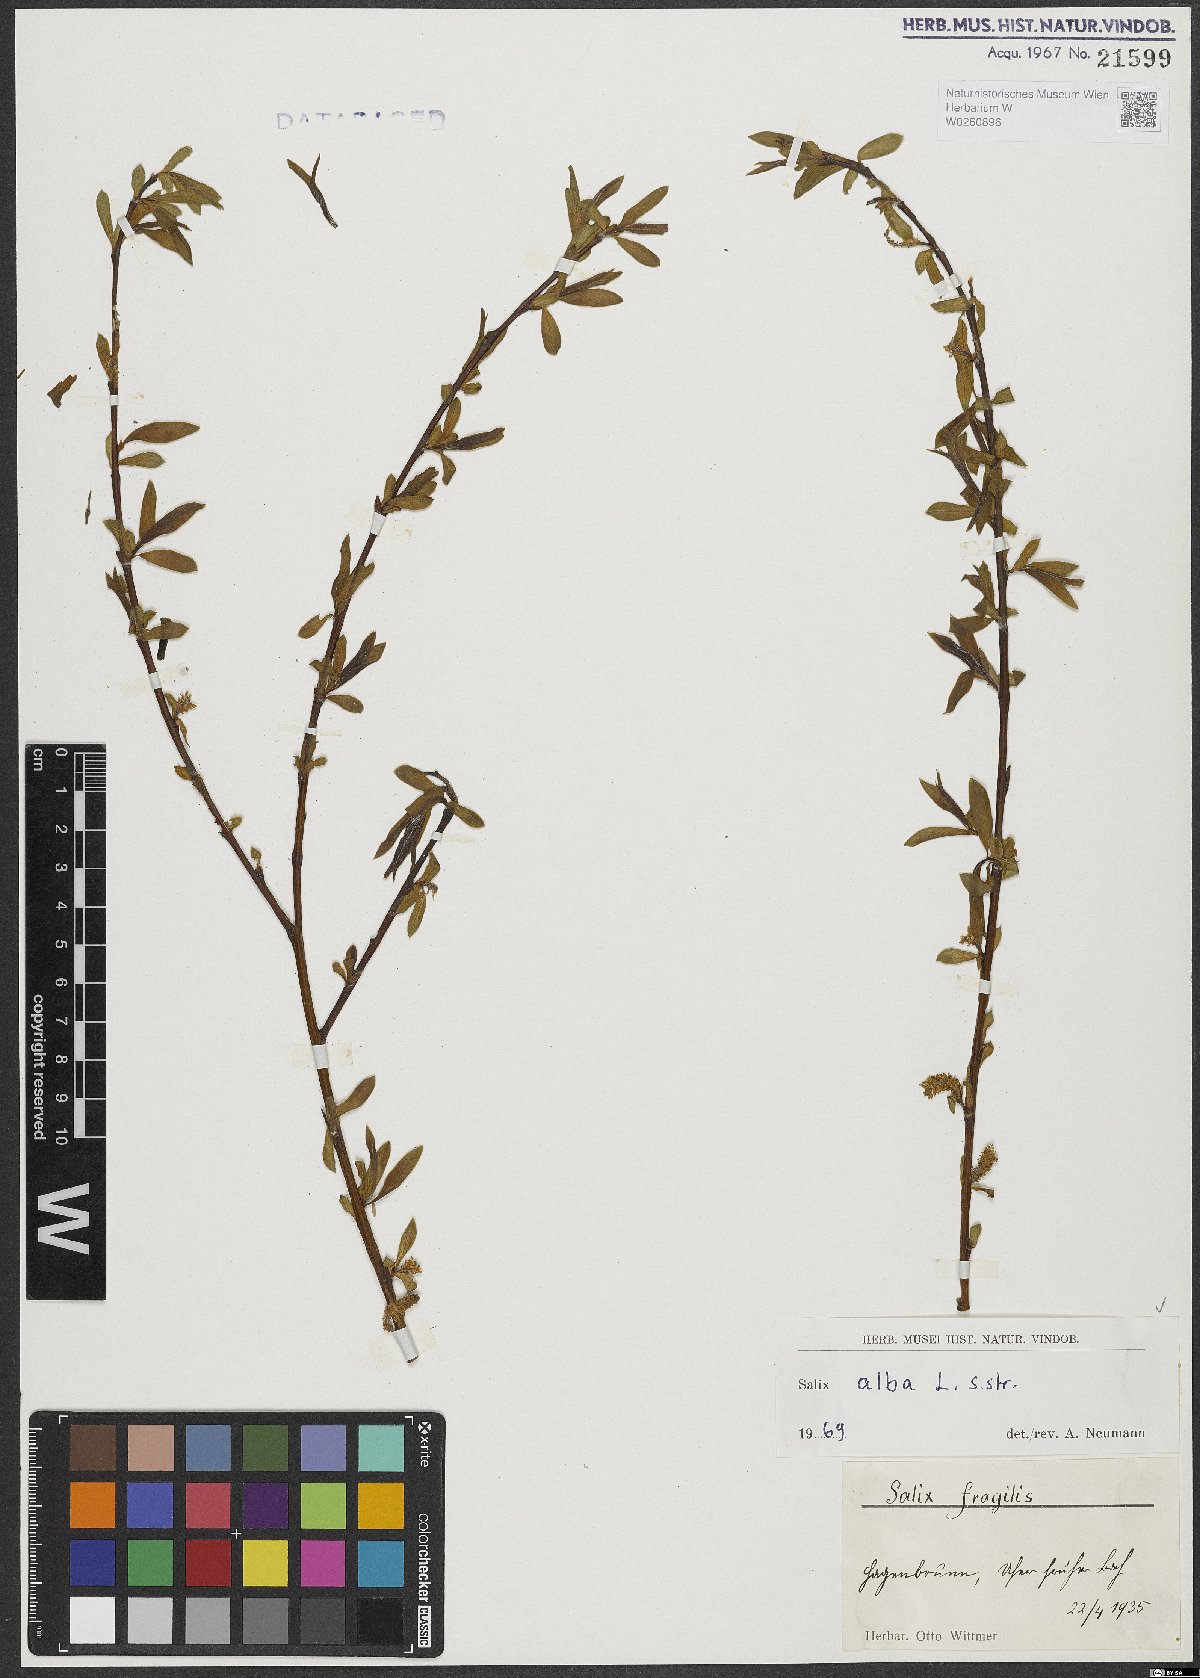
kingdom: Plantae
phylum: Tracheophyta
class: Magnoliopsida
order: Malpighiales
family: Salicaceae
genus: Salix
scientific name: Salix alba
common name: White willow
